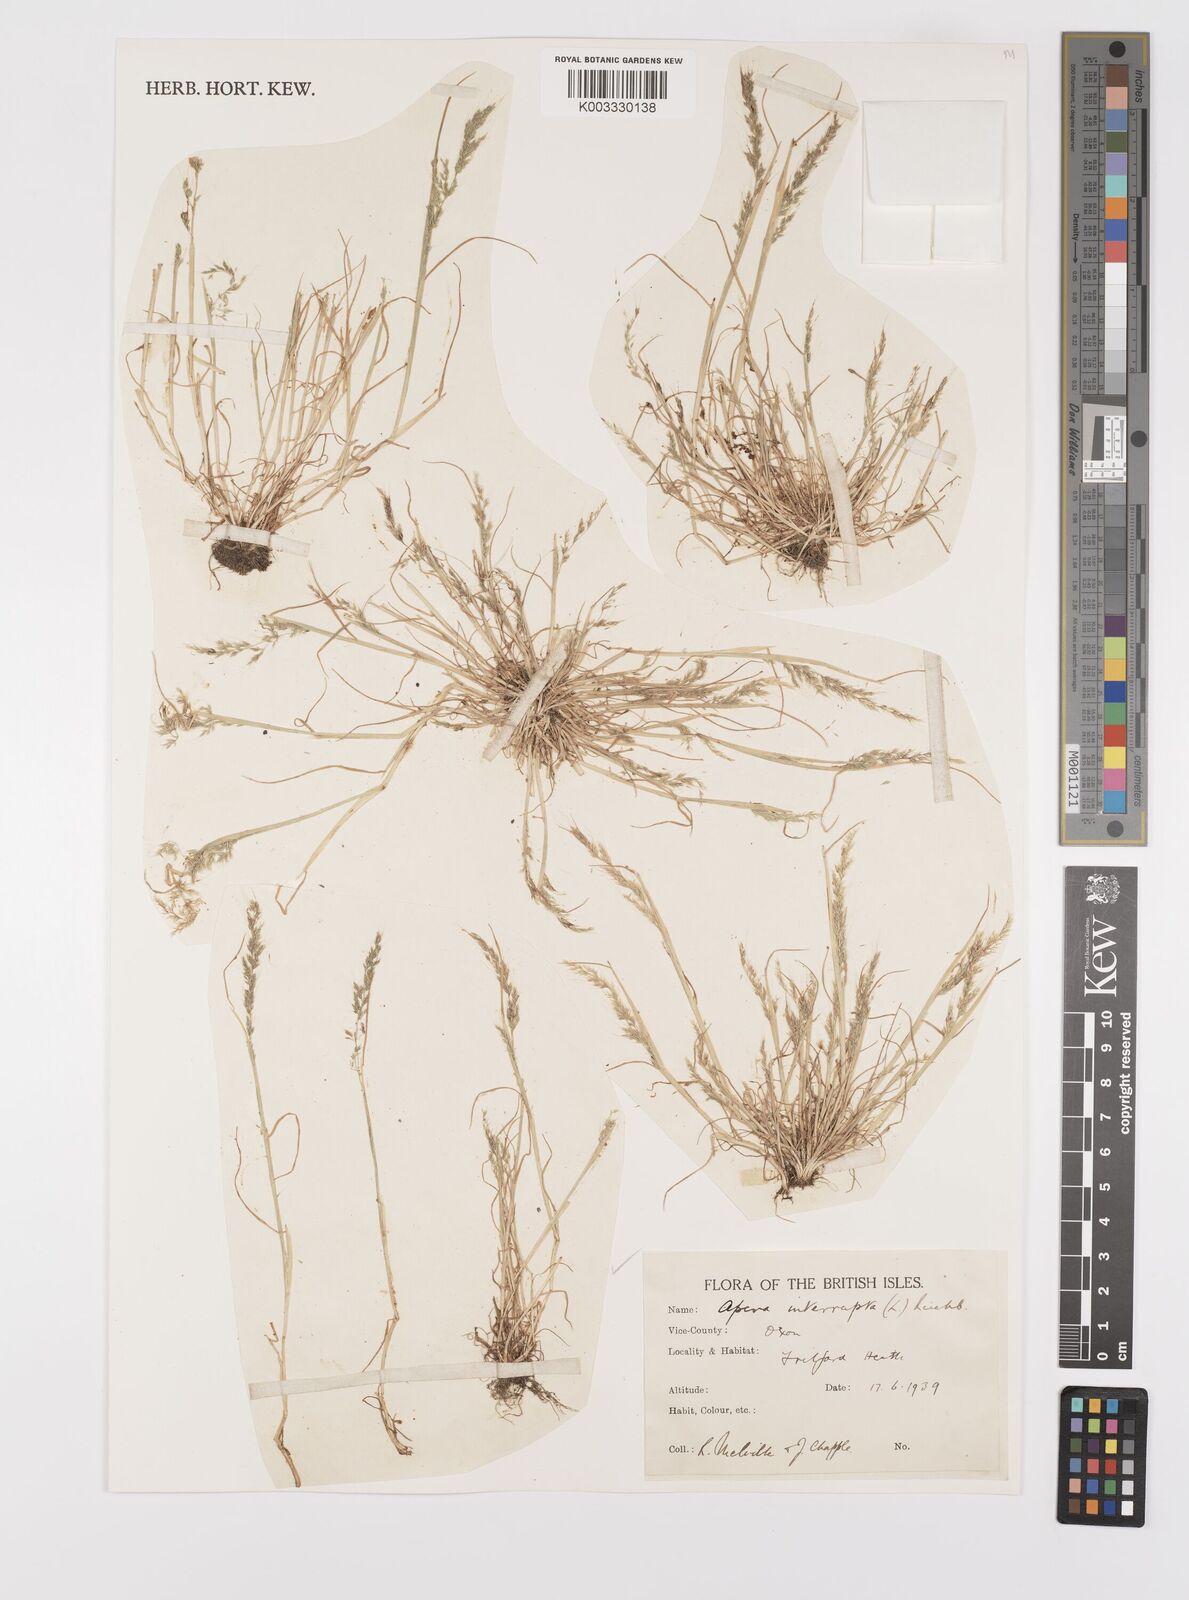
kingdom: Plantae
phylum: Tracheophyta
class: Liliopsida
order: Poales
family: Poaceae
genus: Apera
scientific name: Apera interrupta
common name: Dense silky-bent
